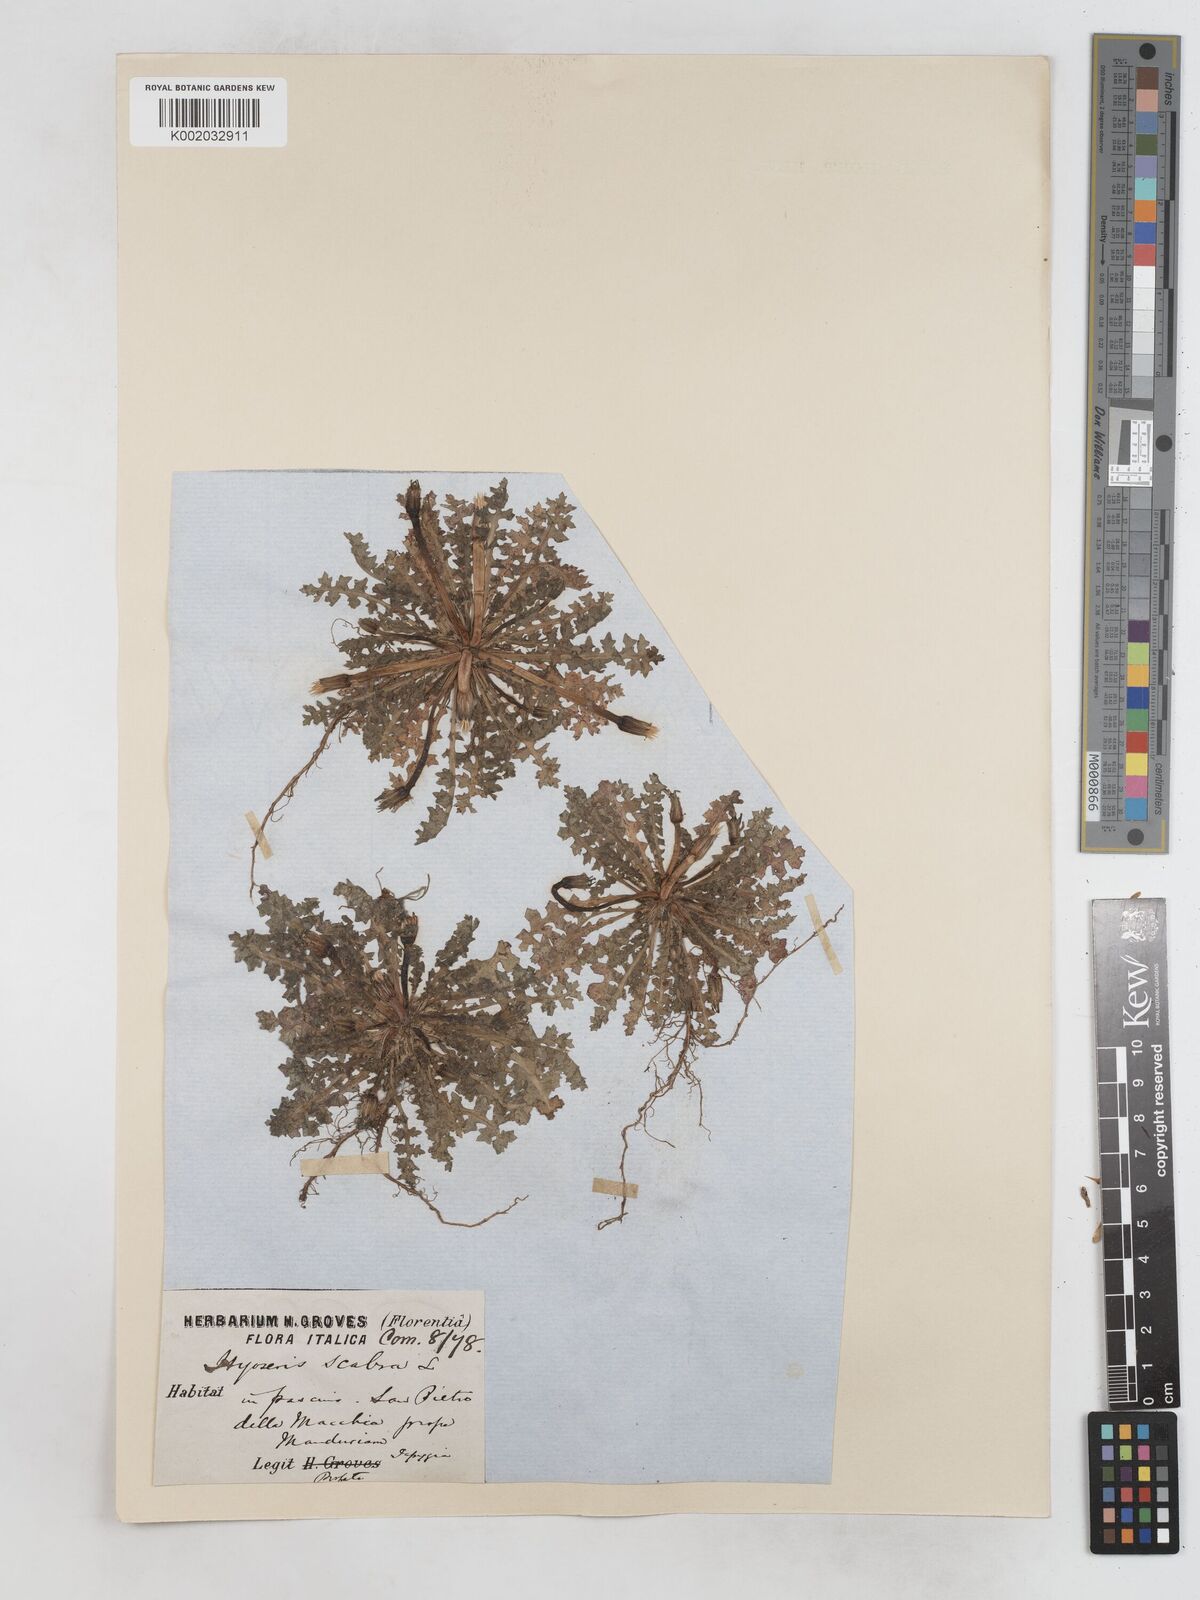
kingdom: Plantae
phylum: Tracheophyta
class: Magnoliopsida
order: Asterales
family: Asteraceae
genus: Hyoseris
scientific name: Hyoseris scabra
